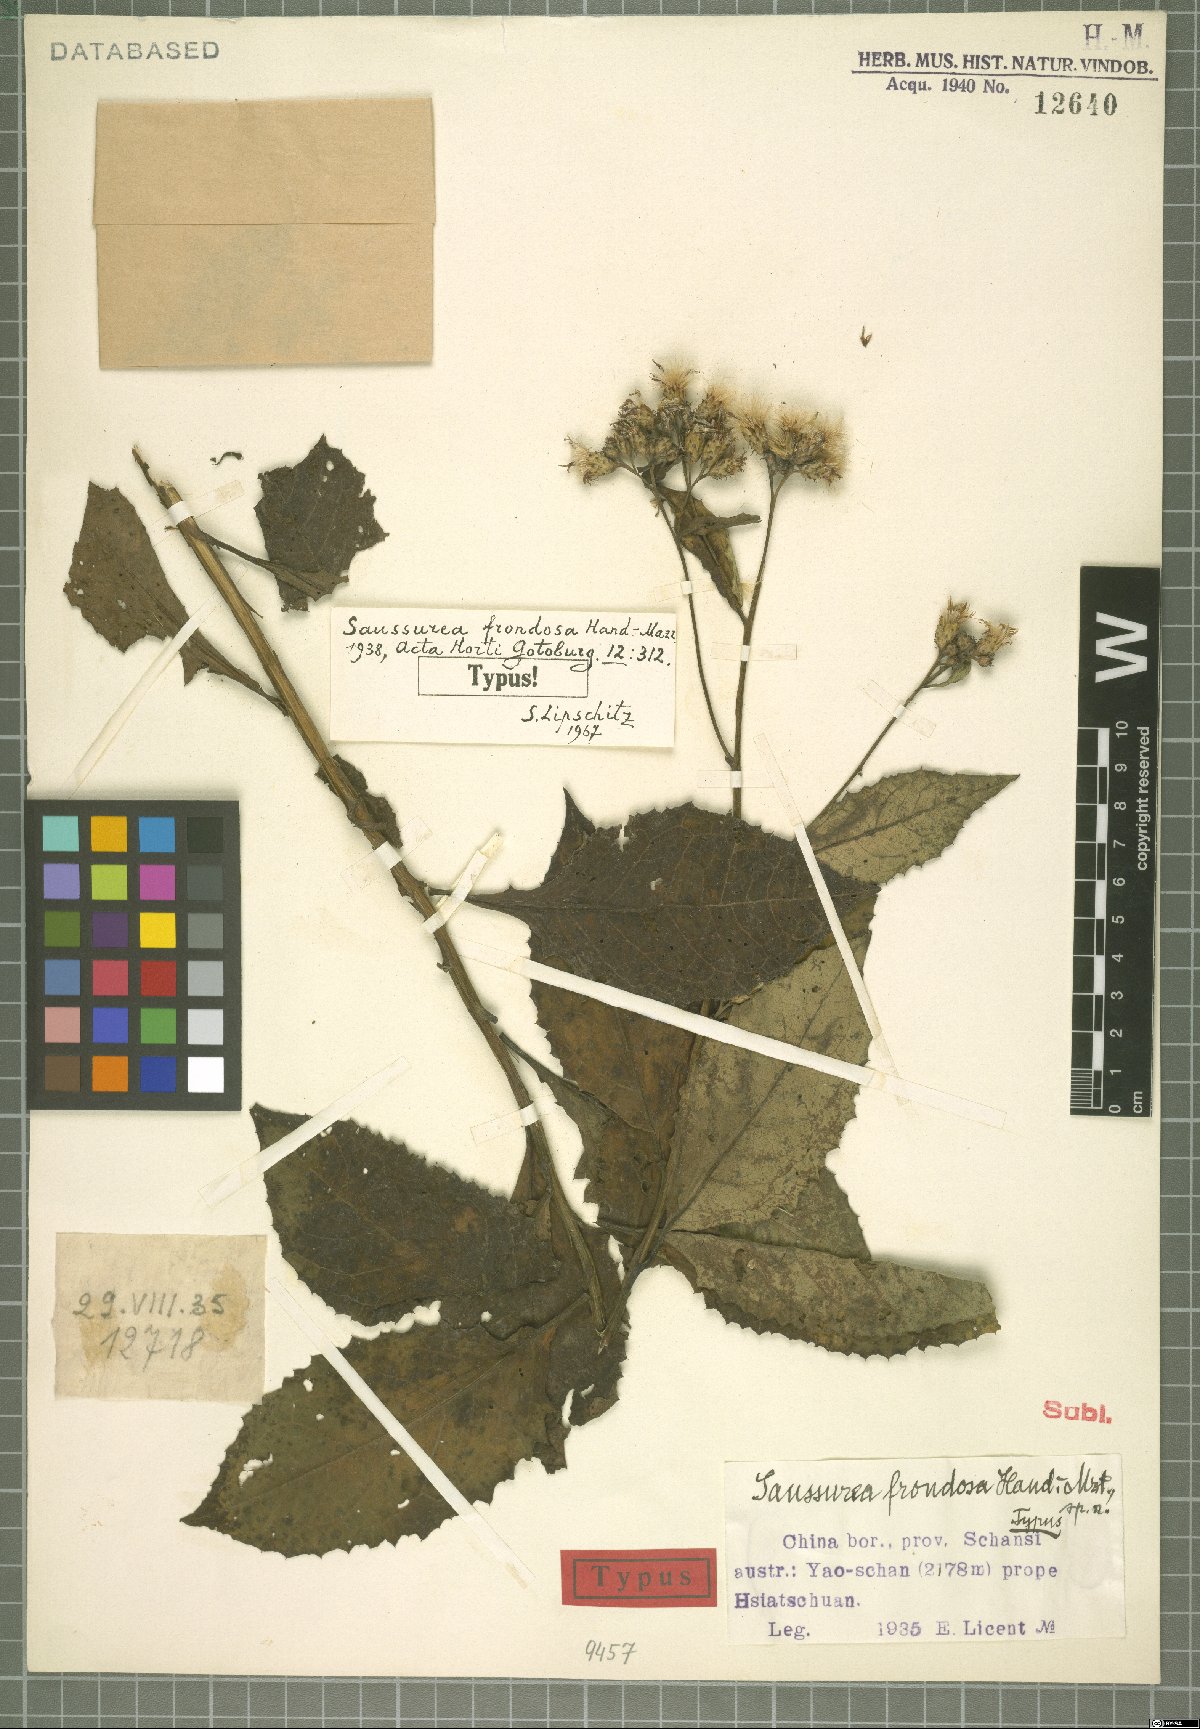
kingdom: Plantae
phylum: Tracheophyta
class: Magnoliopsida
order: Asterales
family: Asteraceae
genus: Saussurea
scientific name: Saussurea frondosa
